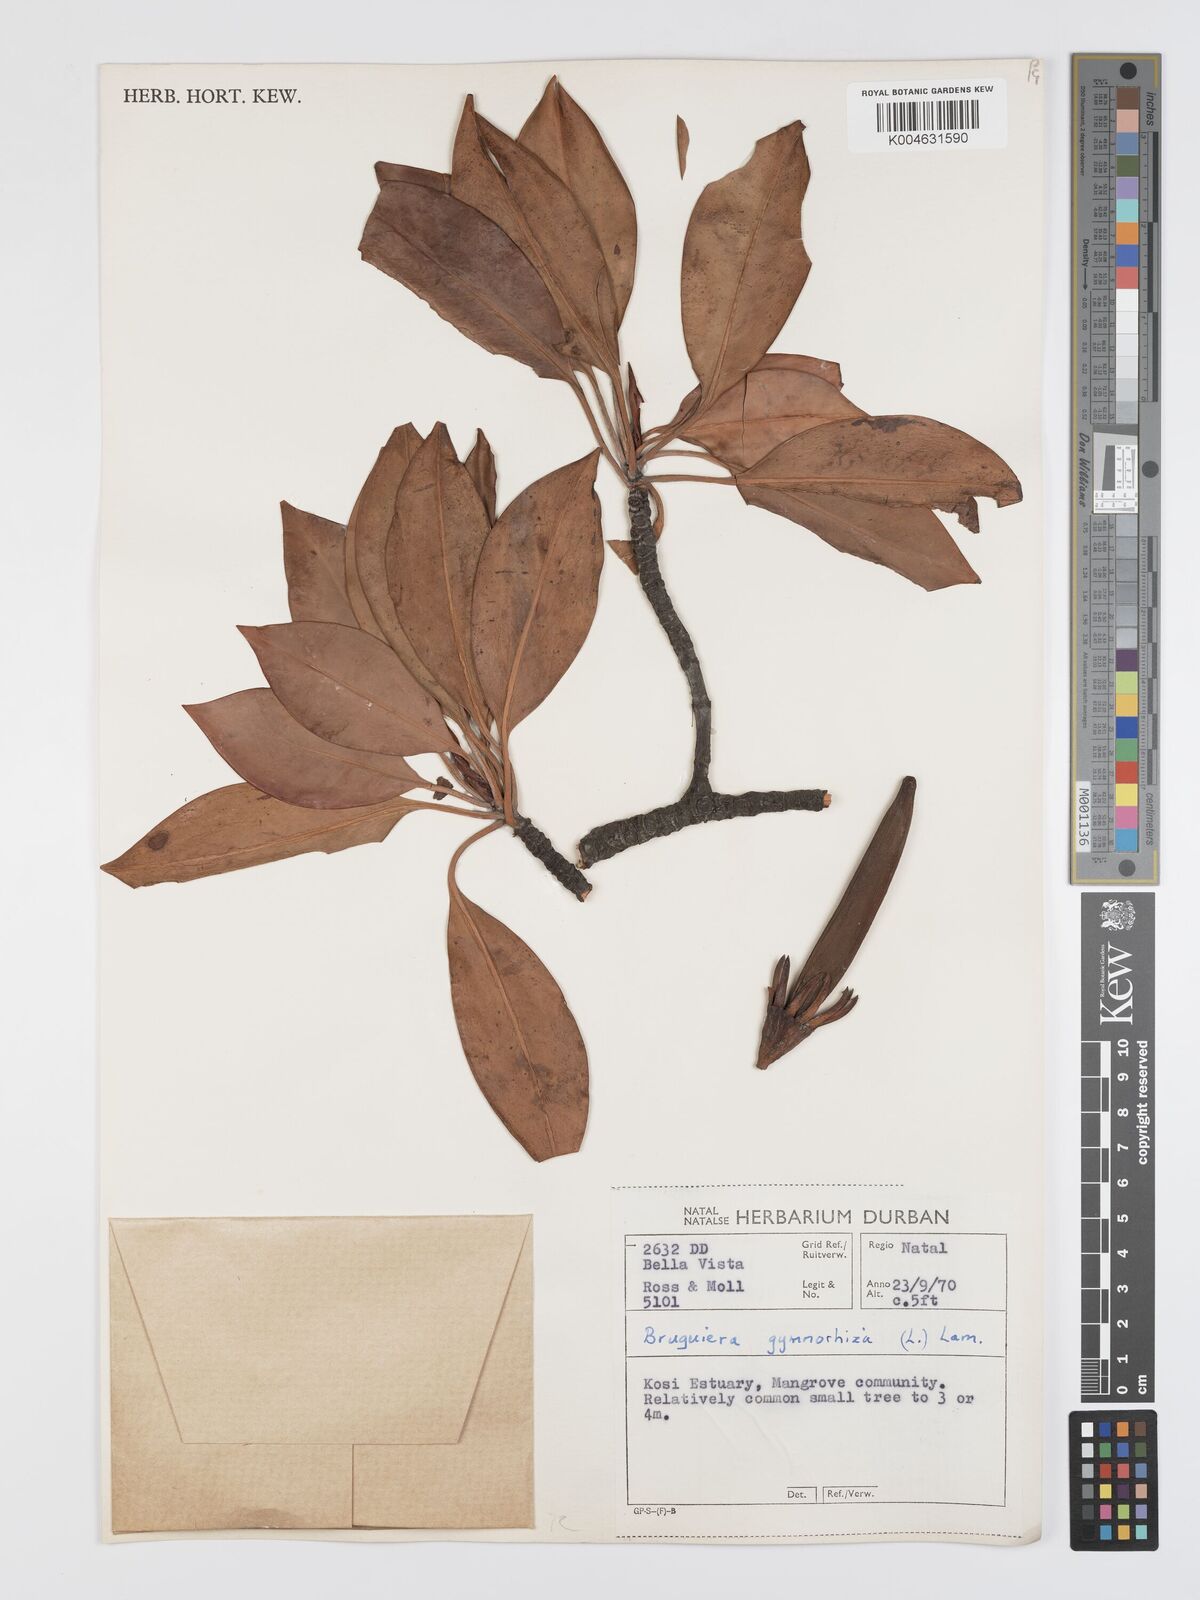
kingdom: Plantae
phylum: Tracheophyta
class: Magnoliopsida
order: Malpighiales
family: Rhizophoraceae
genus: Bruguiera
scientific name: Bruguiera gymnorhiza
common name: Oriental mangrove
